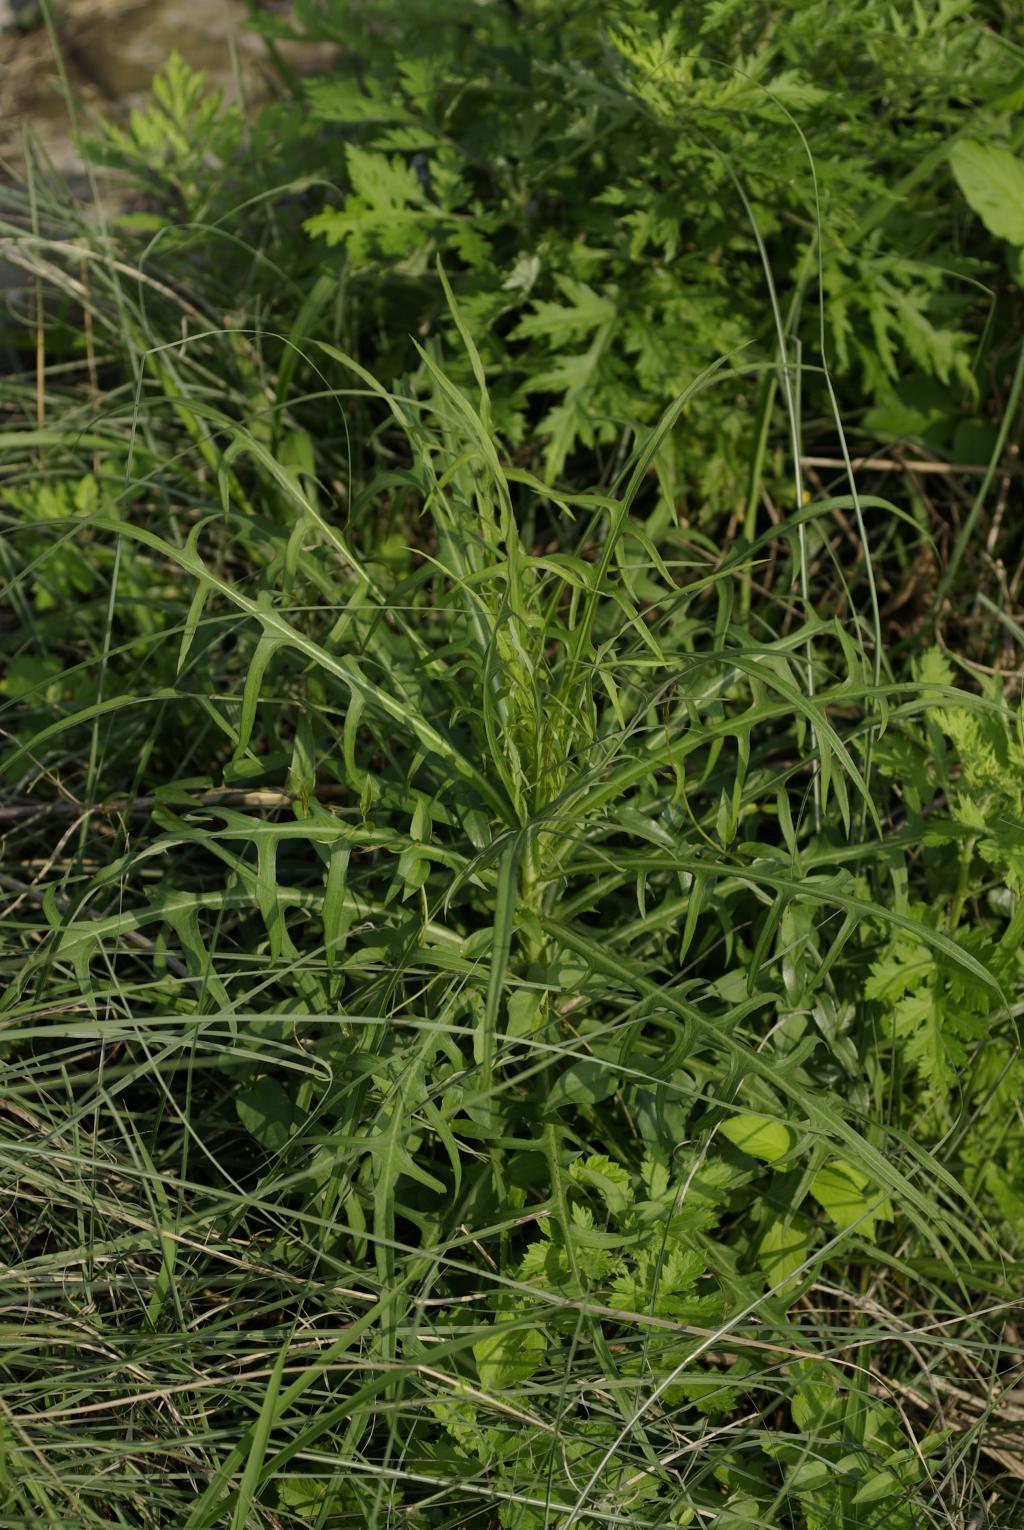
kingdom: Plantae
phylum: Tracheophyta
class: Magnoliopsida
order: Asterales
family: Asteraceae
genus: Lactuca
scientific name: Lactuca indica
